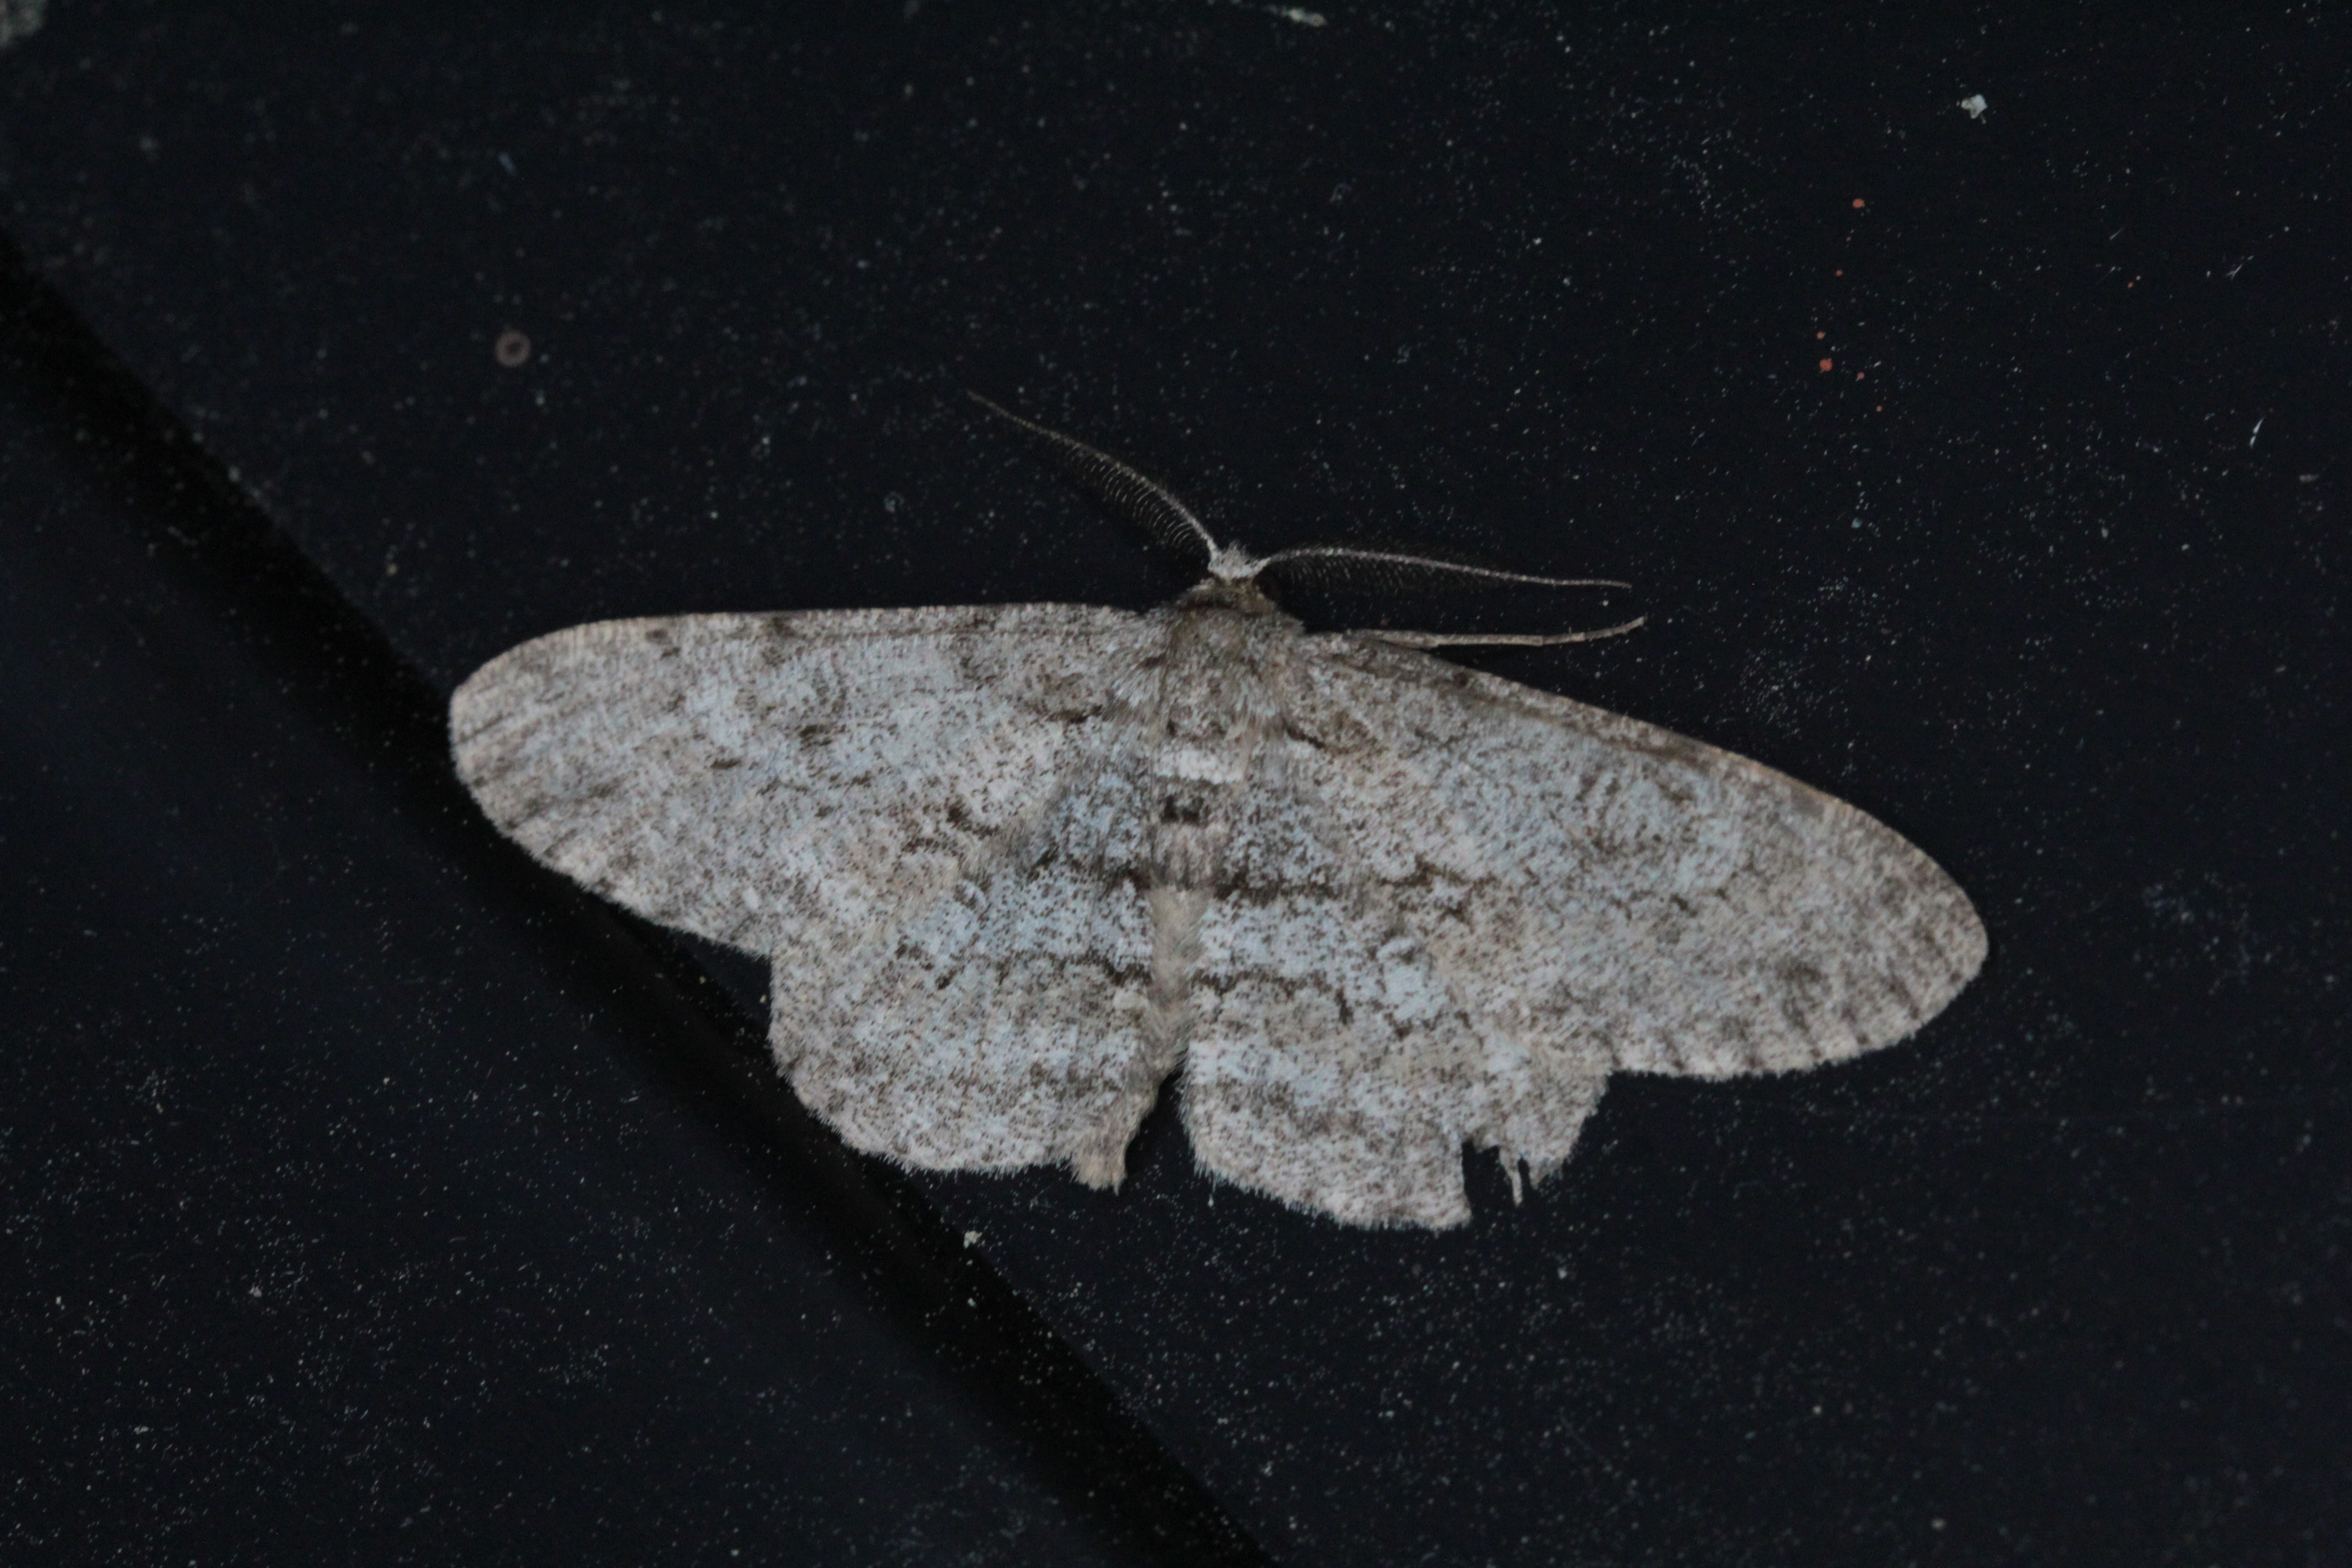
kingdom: Animalia
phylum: Arthropoda
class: Insecta
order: Lepidoptera
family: Geometridae
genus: Hypomecis
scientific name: Hypomecis punctinalis
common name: Pale oak beauty
